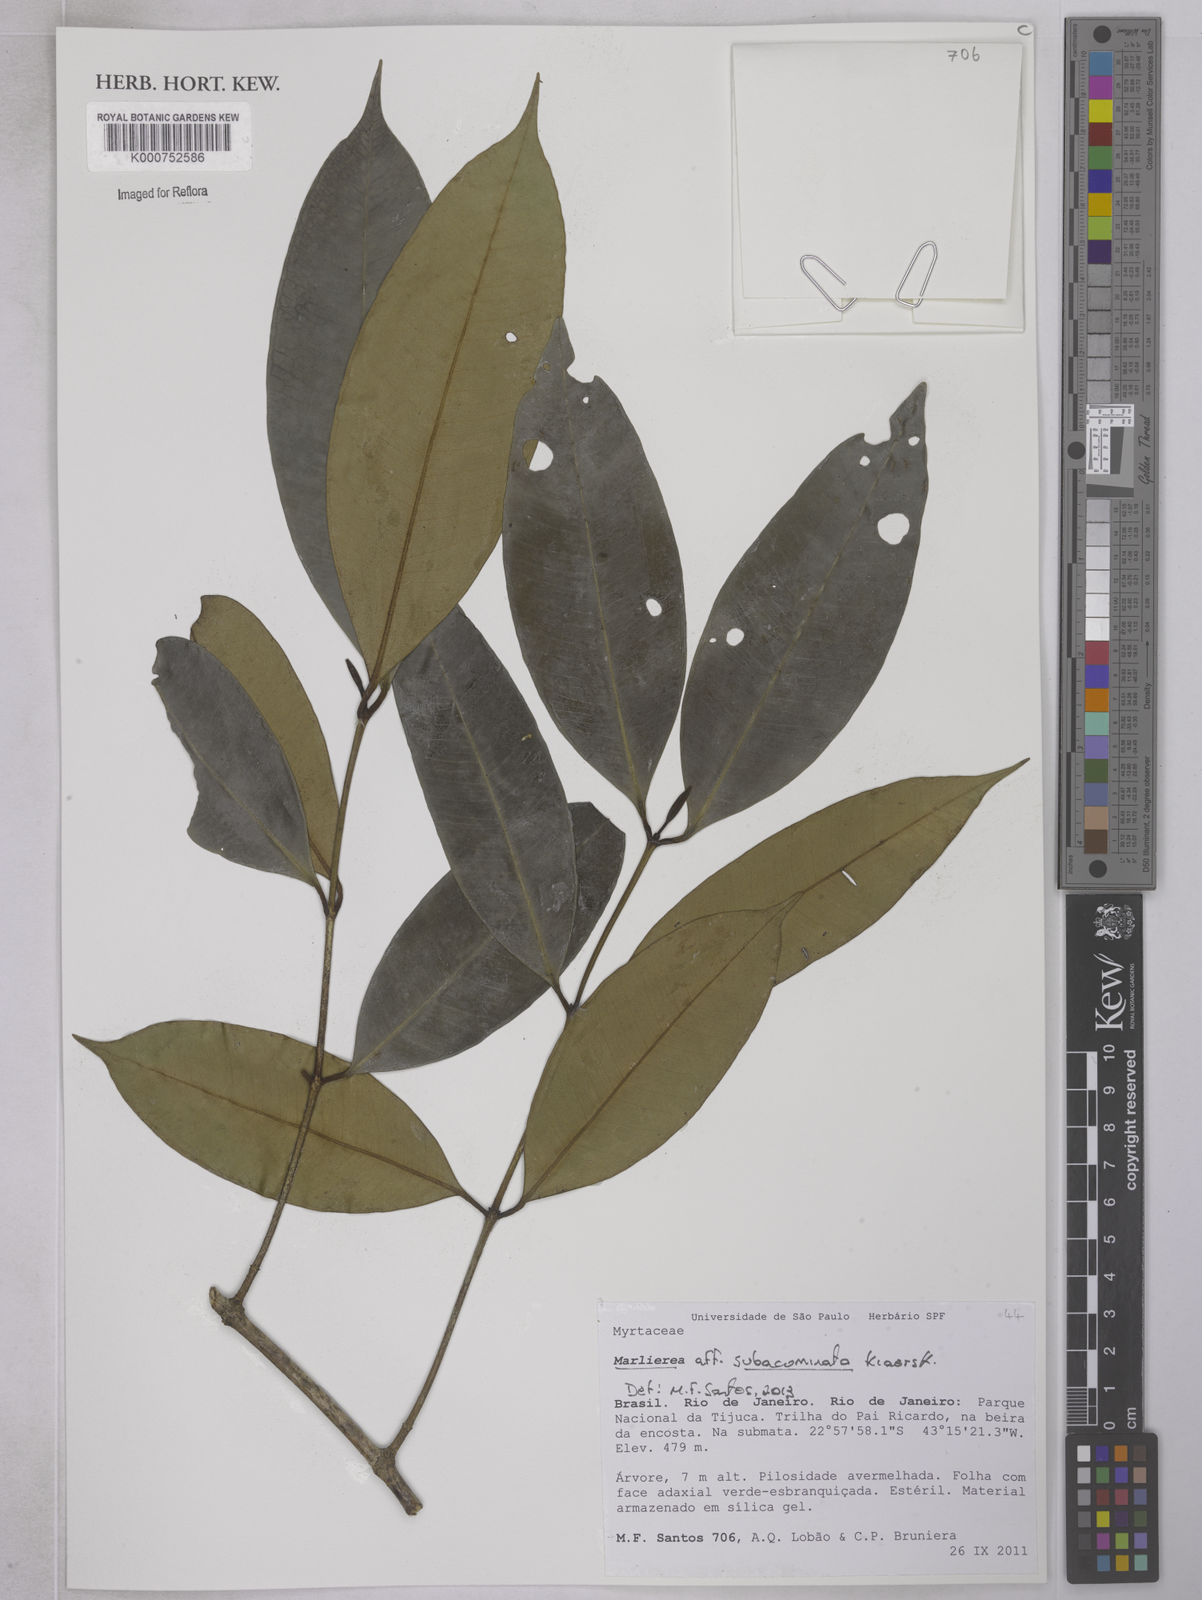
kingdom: Plantae
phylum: Tracheophyta
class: Magnoliopsida
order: Myrtales
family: Myrtaceae
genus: Myrcia
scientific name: Myrcia subacuminata
